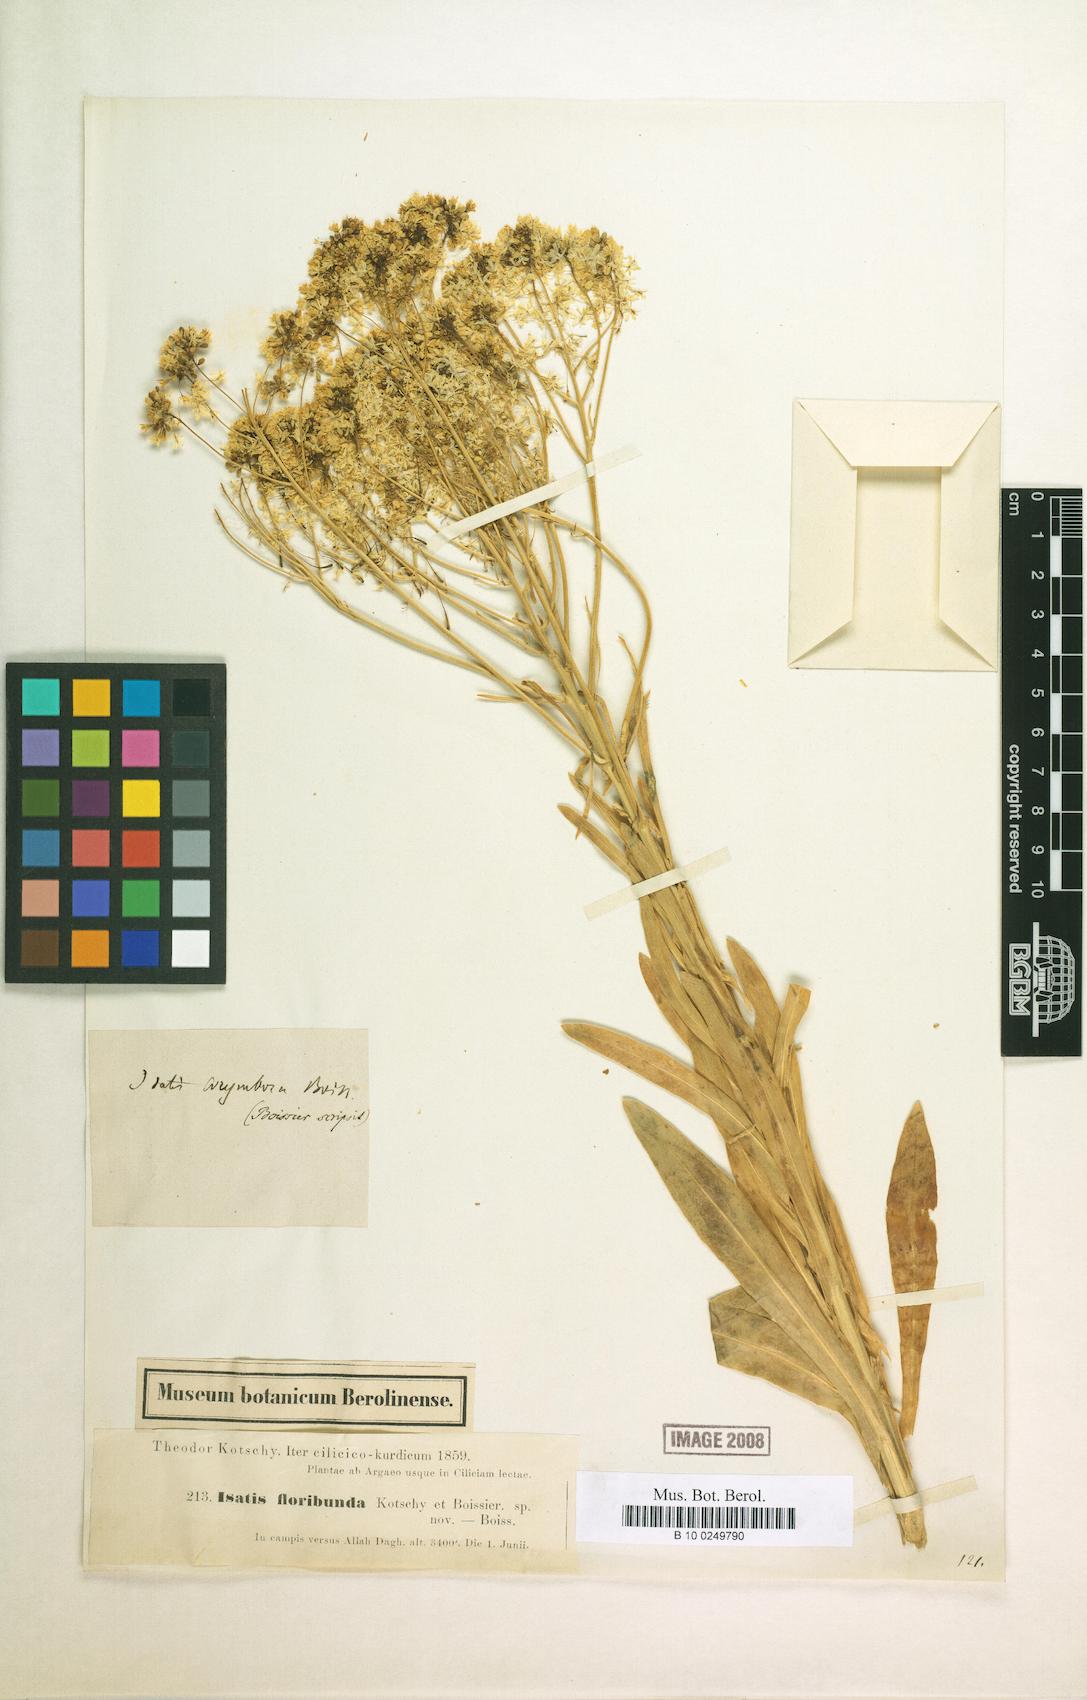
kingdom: Plantae
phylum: Tracheophyta
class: Magnoliopsida
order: Brassicales
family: Brassicaceae
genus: Isatis
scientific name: Isatis corymbosa
